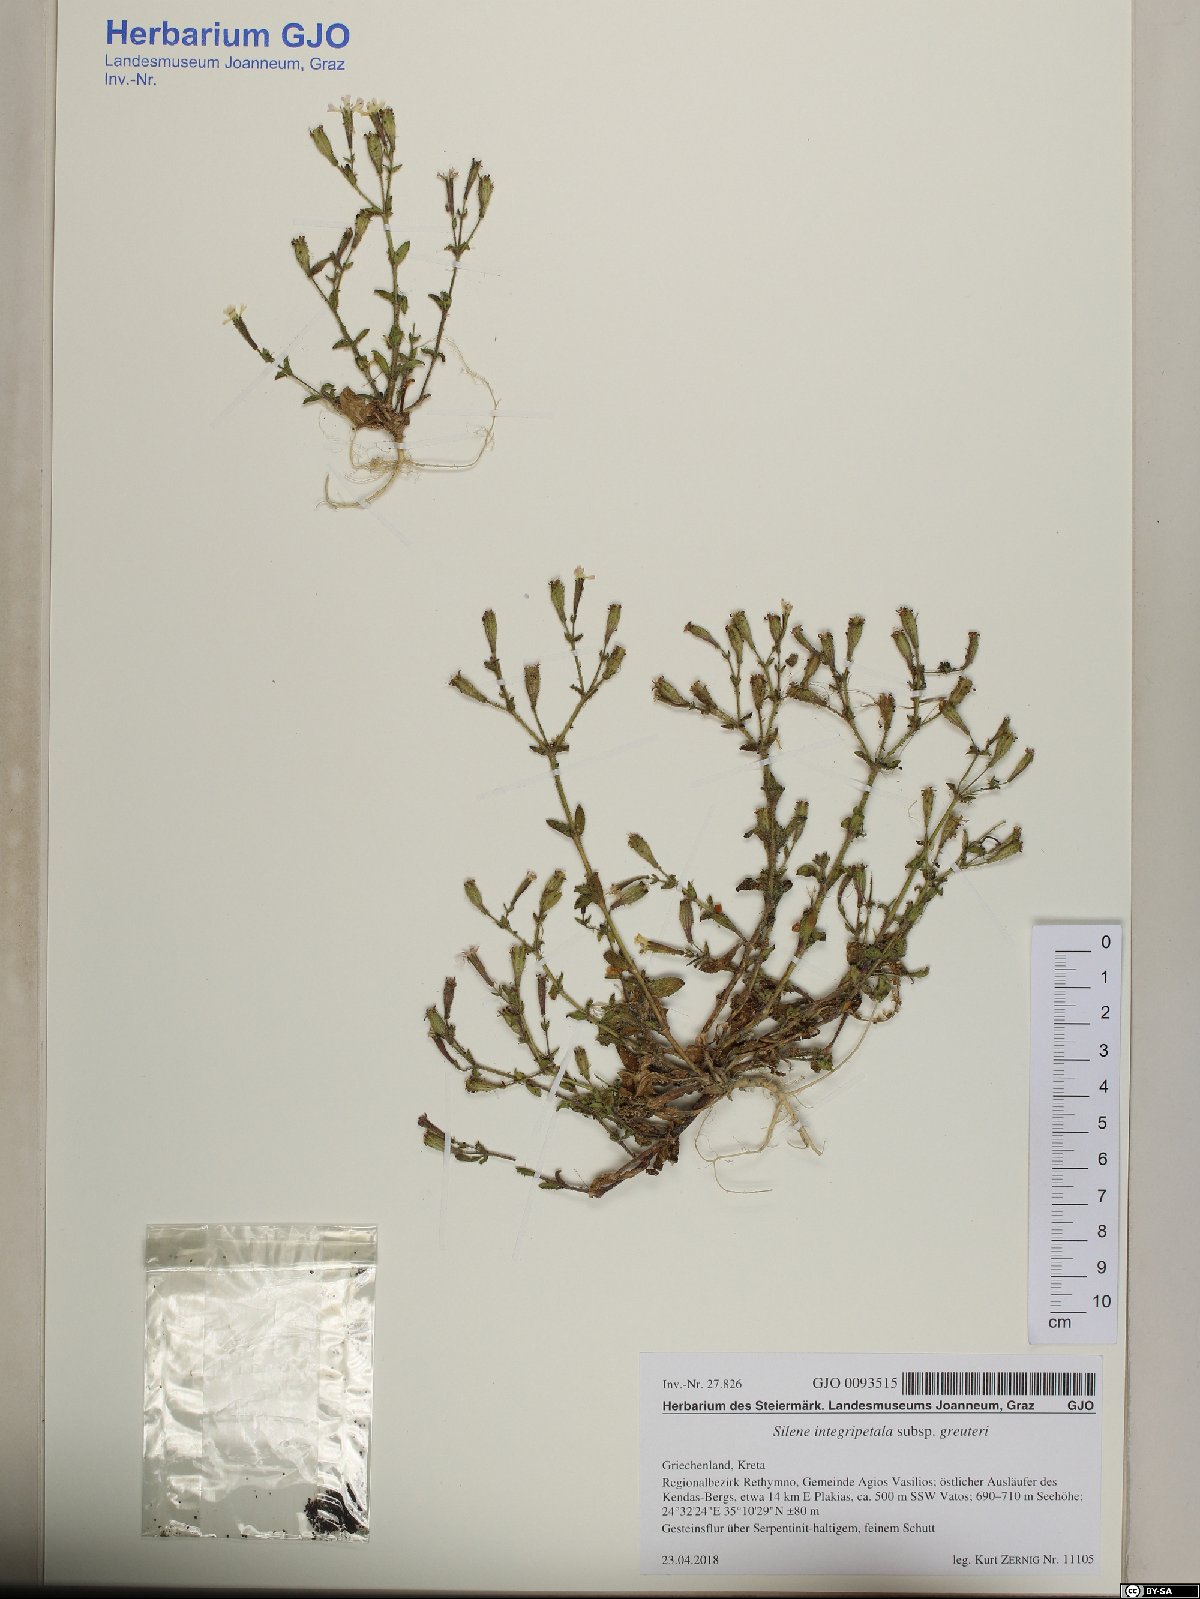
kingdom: Plantae
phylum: Tracheophyta
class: Magnoliopsida
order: Caryophyllales
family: Caryophyllaceae
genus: Silene
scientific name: Silene integripetala
